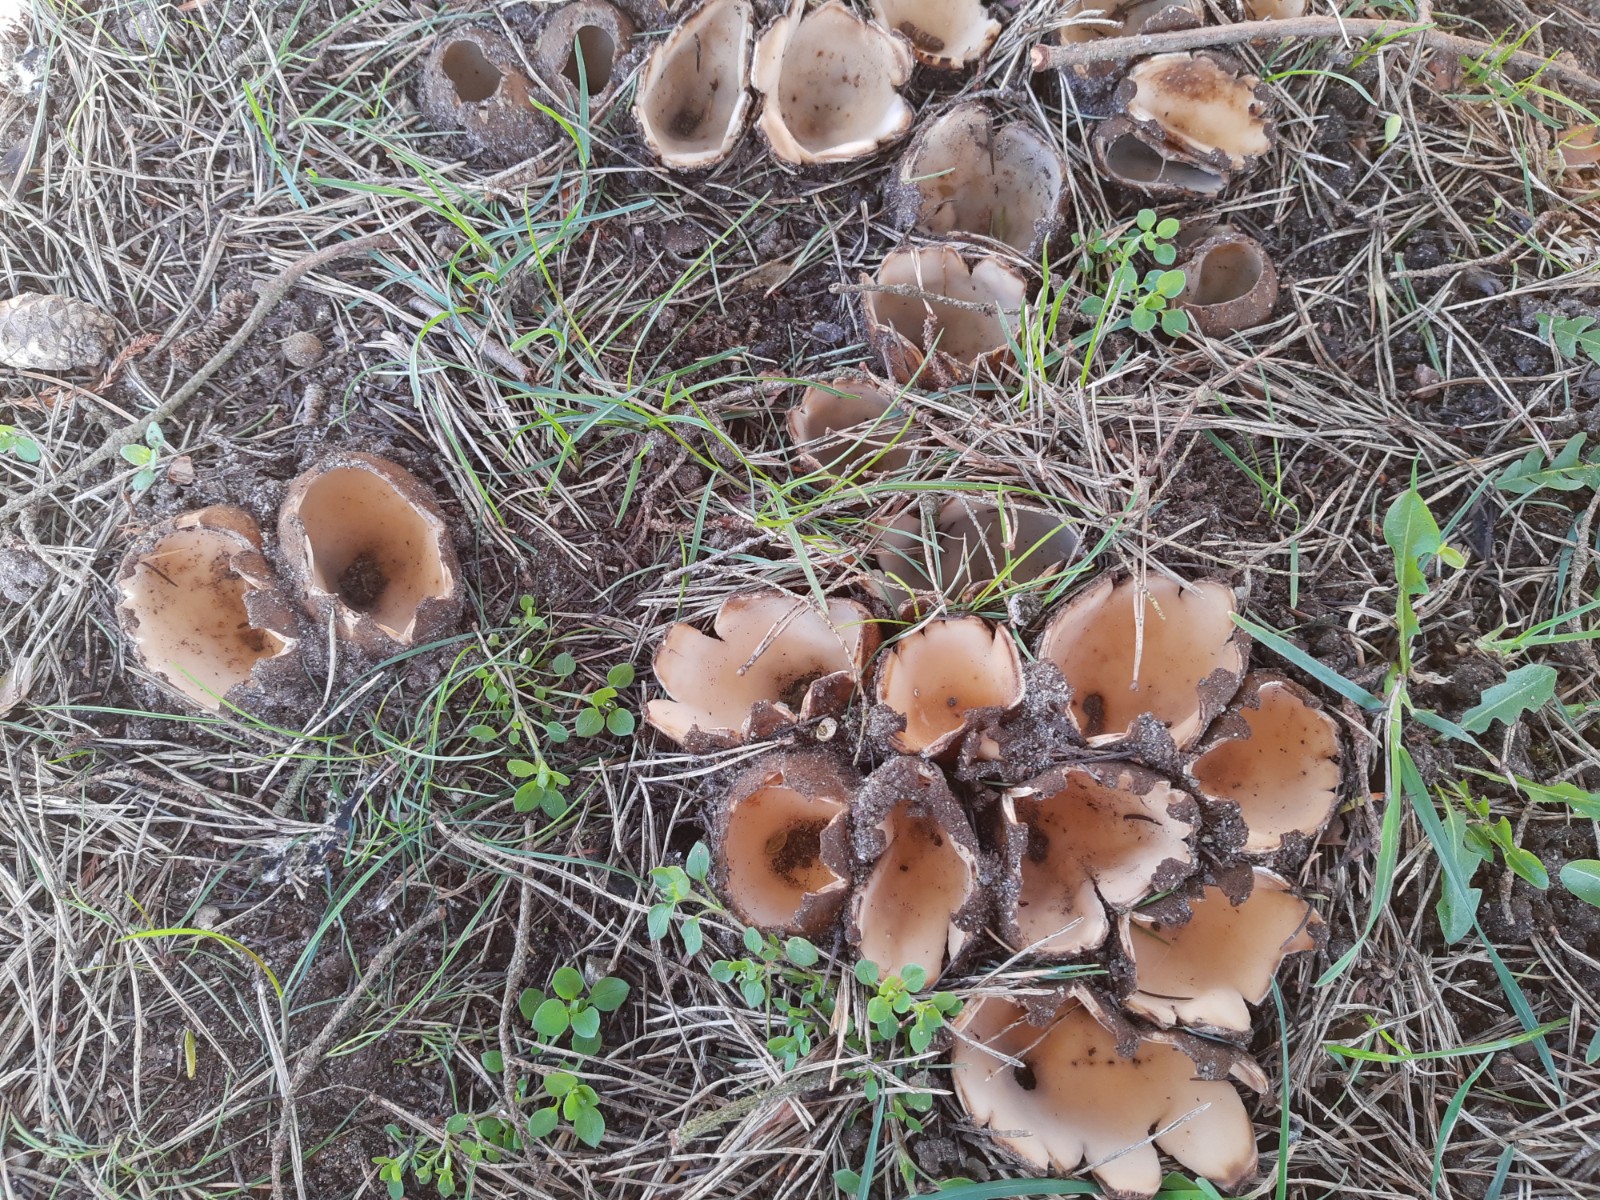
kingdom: Fungi
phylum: Ascomycota
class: Pezizomycetes
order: Pezizales
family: Pyronemataceae
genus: Geopora
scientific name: Geopora sumneriana
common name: vår-jordbæger
